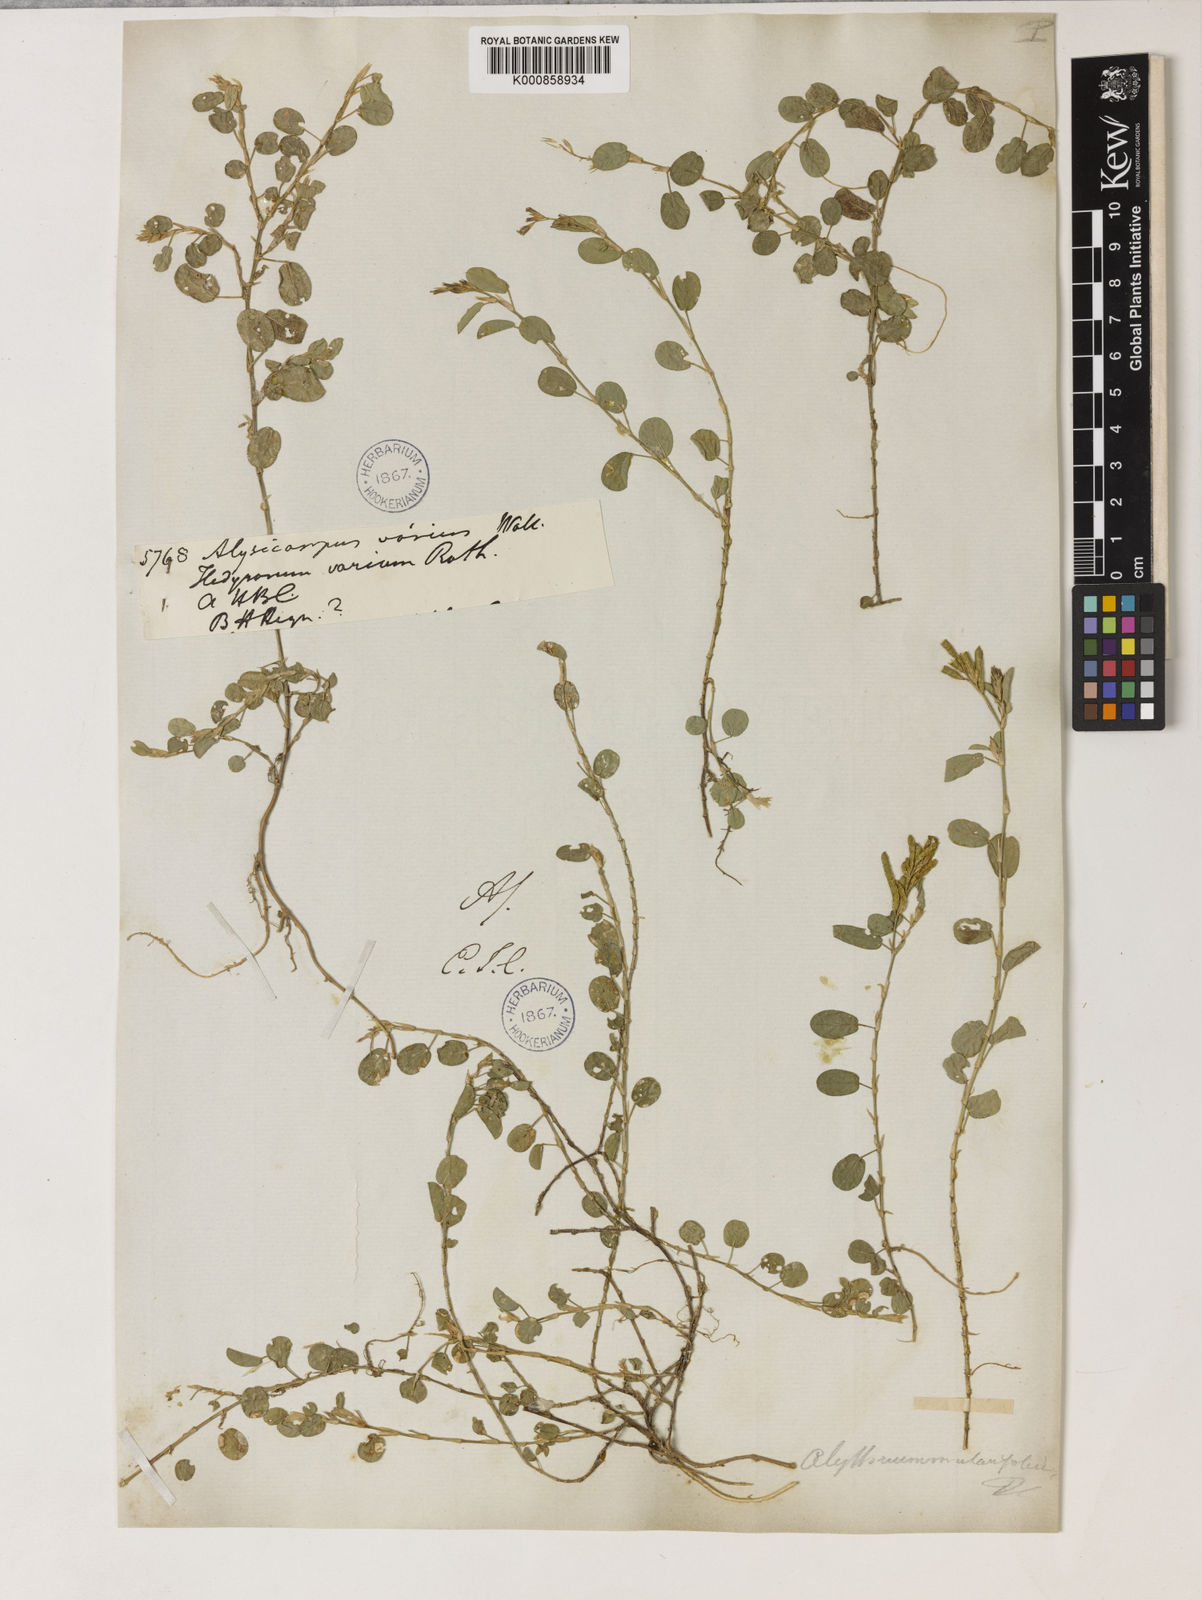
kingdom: Plantae
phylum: Tracheophyta
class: Magnoliopsida
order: Fabales
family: Fabaceae
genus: Alysicarpus
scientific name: Alysicarpus vaginalis
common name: White moneywort
